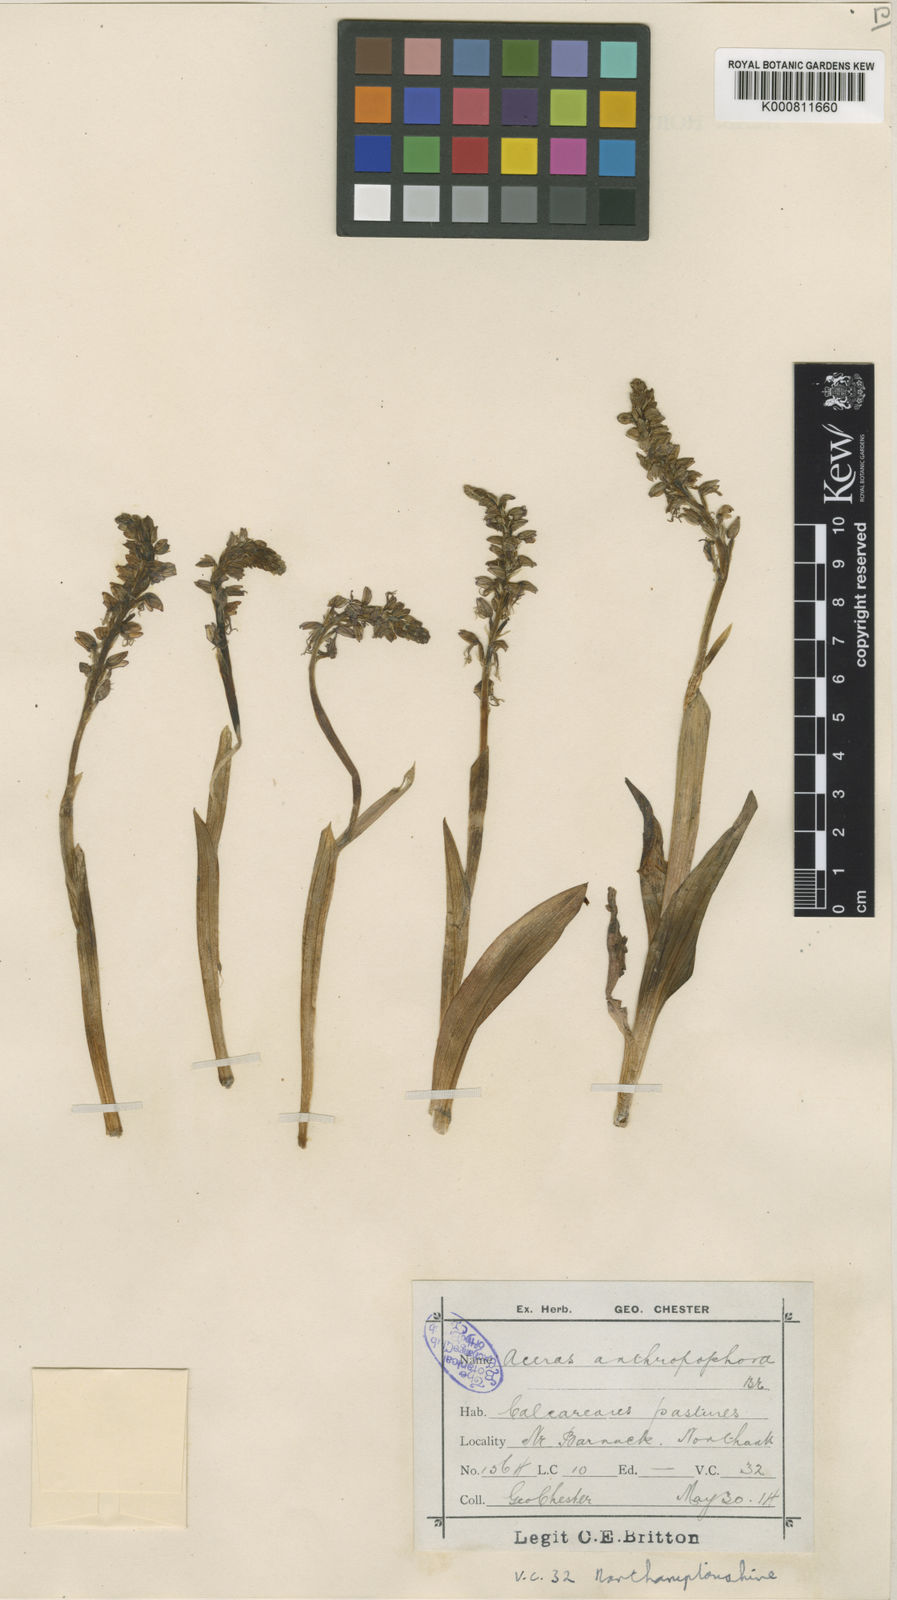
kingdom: Plantae
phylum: Tracheophyta
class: Liliopsida
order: Asparagales
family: Orchidaceae
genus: Orchis
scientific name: Orchis
